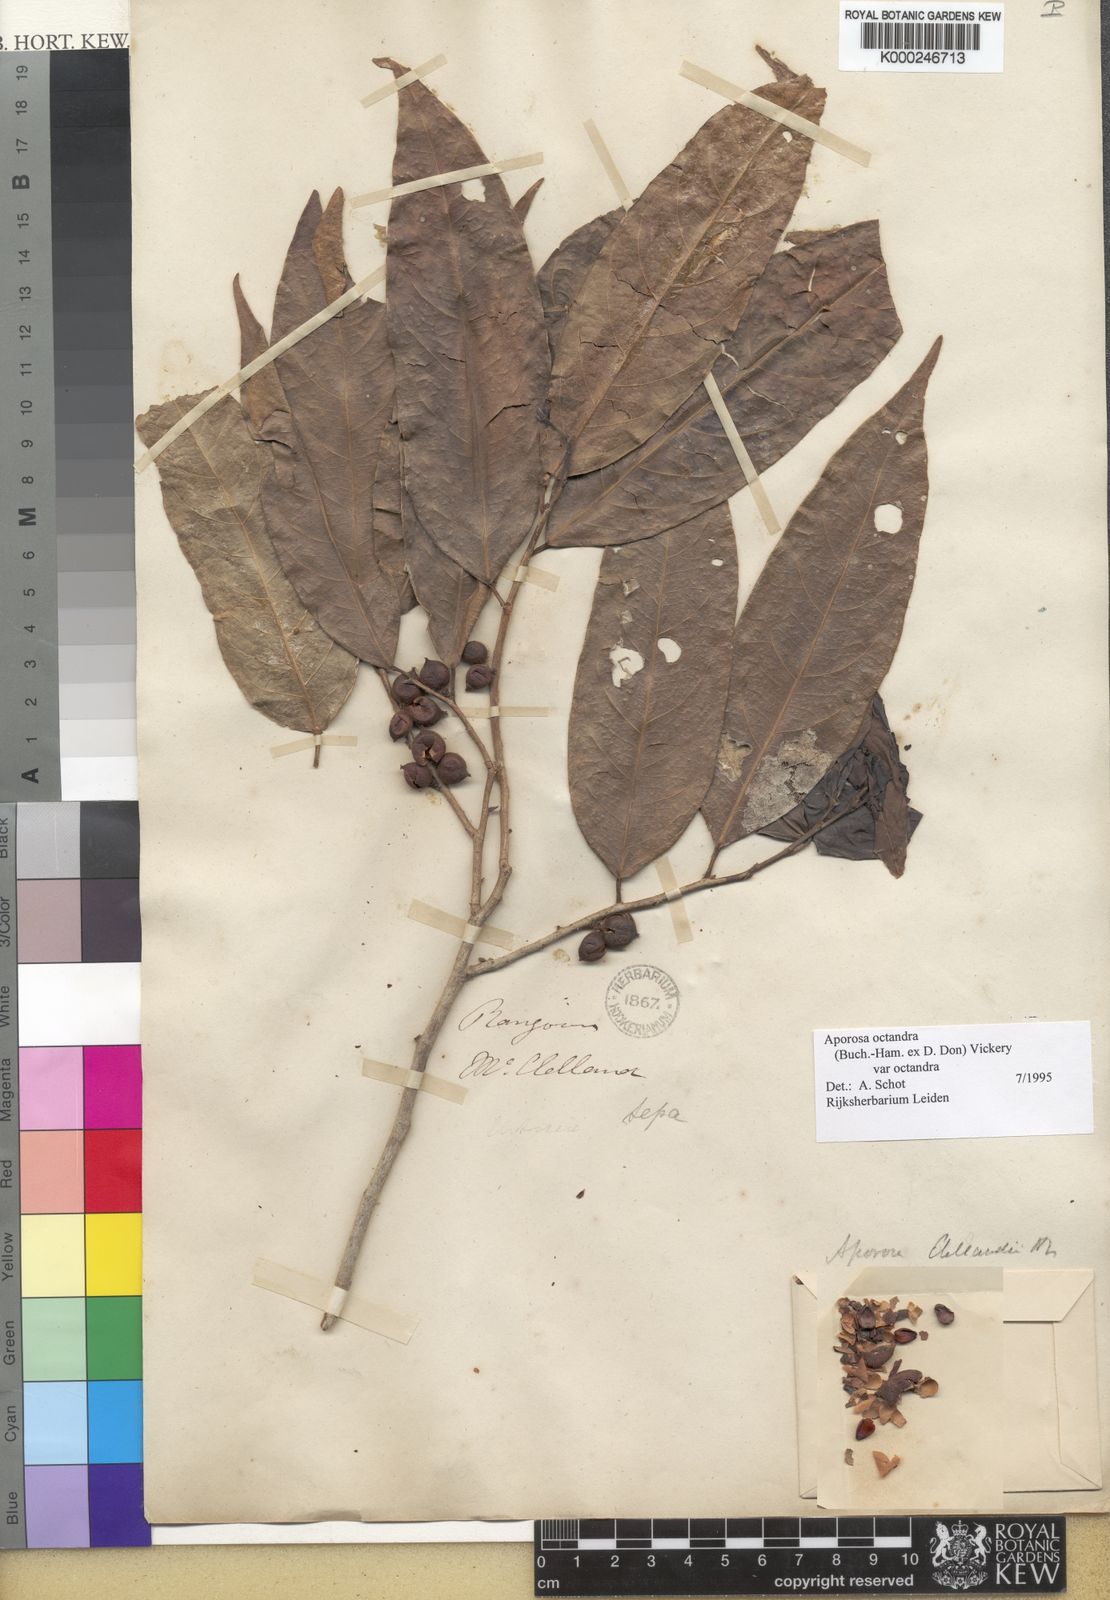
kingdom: Plantae
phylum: Tracheophyta
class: Magnoliopsida
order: Malpighiales
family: Phyllanthaceae
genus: Aporosa
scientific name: Aporosa octandra
